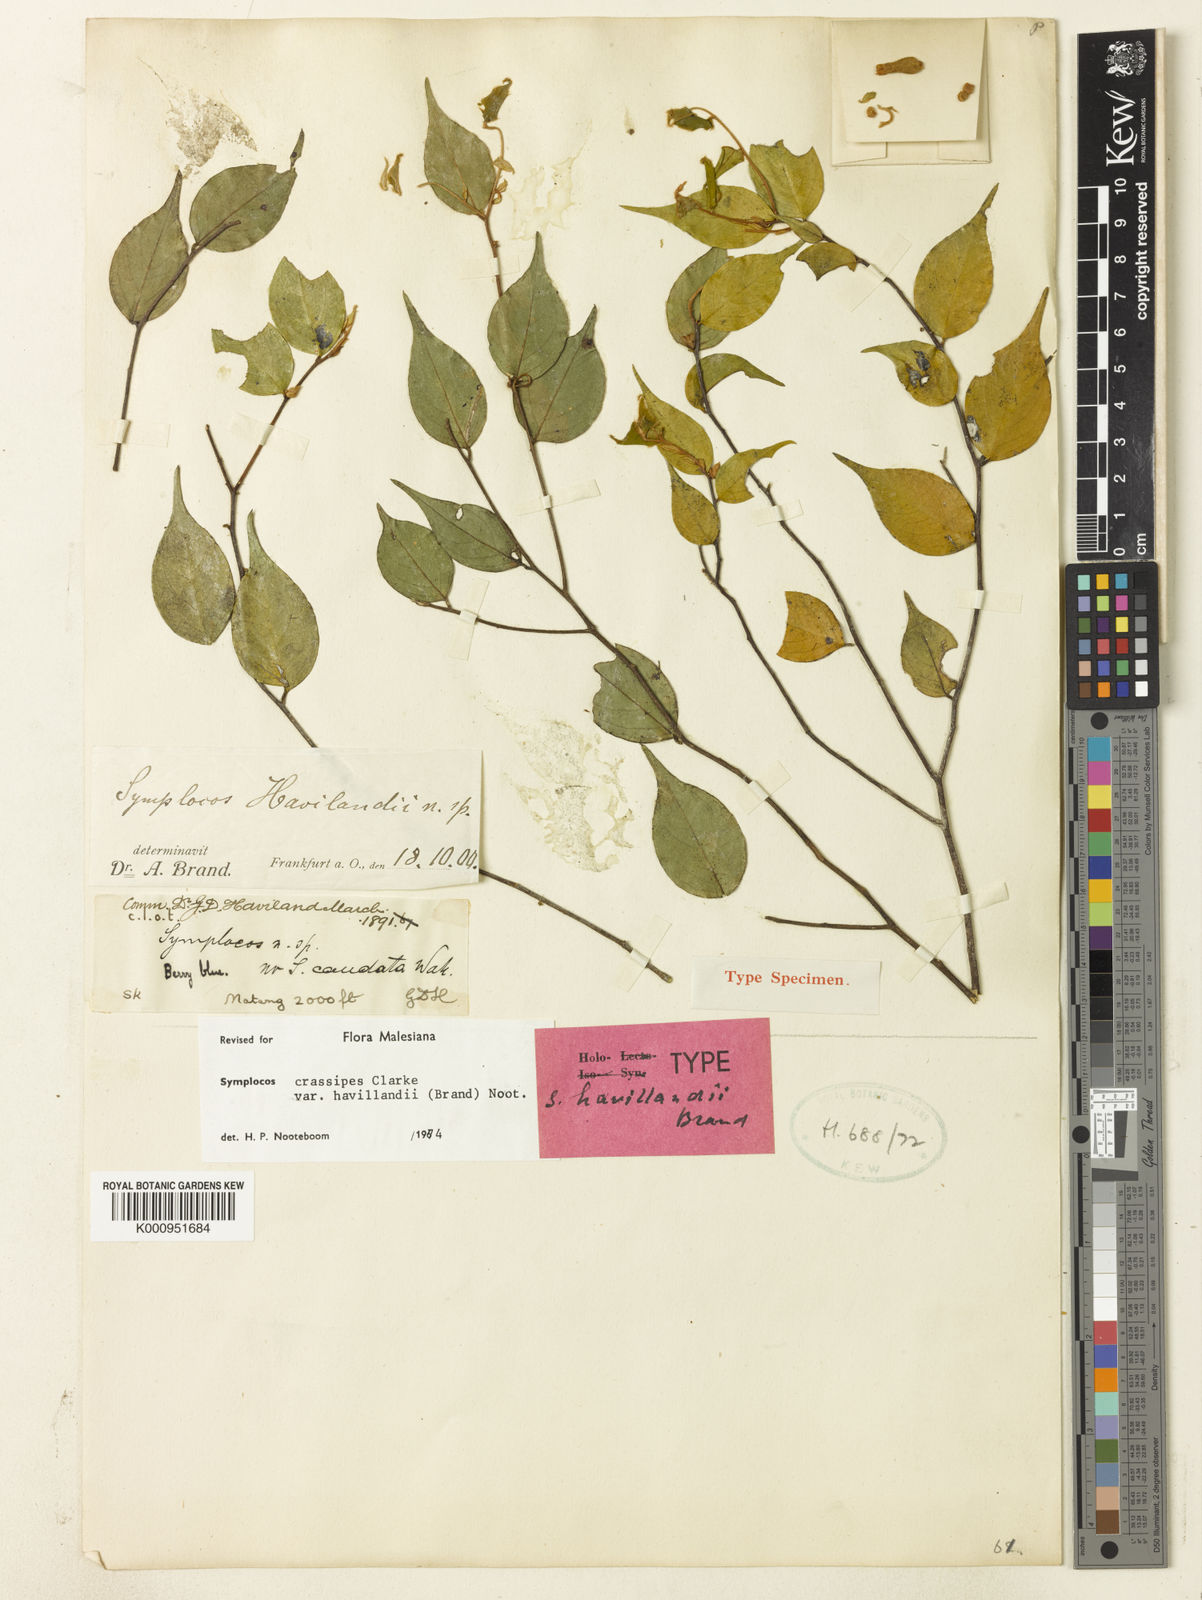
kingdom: Plantae
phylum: Tracheophyta
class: Magnoliopsida
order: Ericales
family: Symplocaceae
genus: Symplocos
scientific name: Symplocos crassipes
